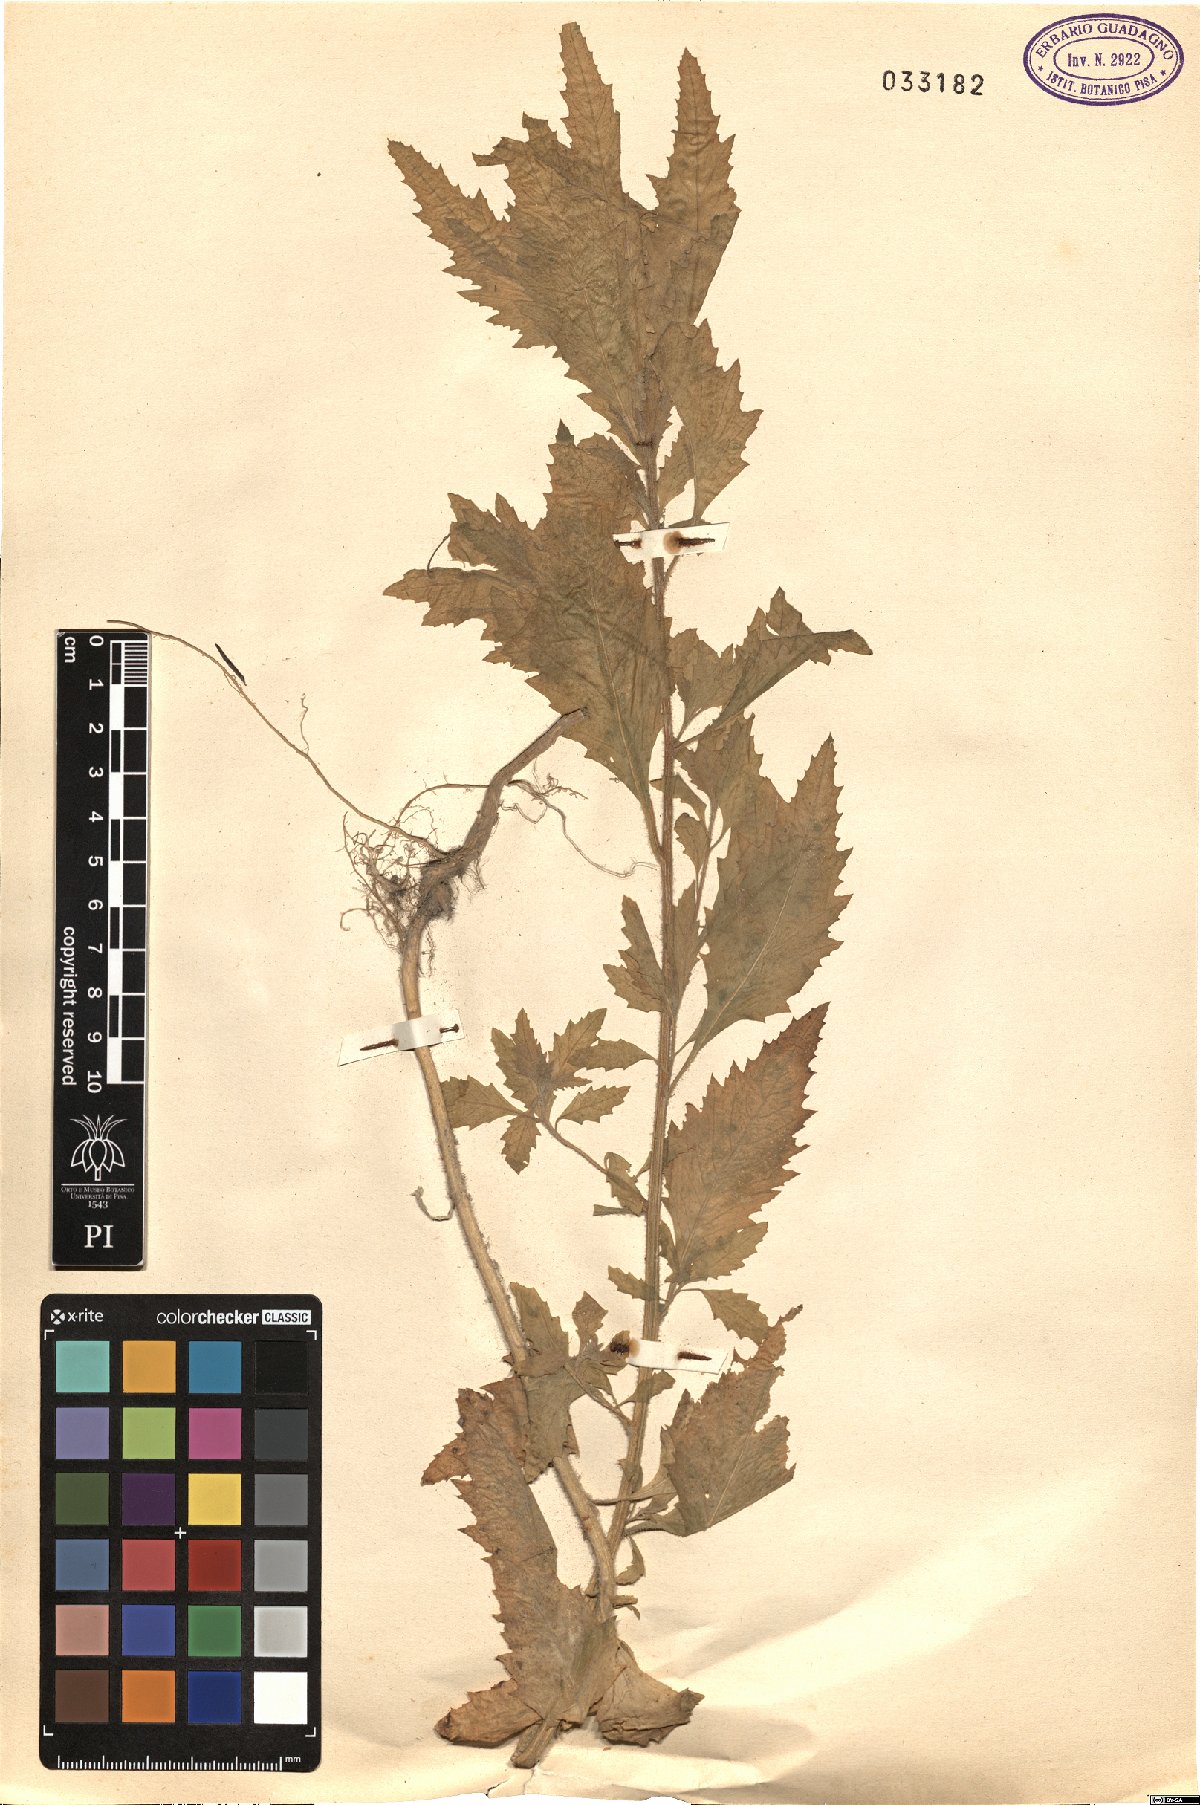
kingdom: Plantae
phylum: Tracheophyta
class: Magnoliopsida
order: Caryophyllales
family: Amaranthaceae
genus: Chenopodium
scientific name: Chenopodium
